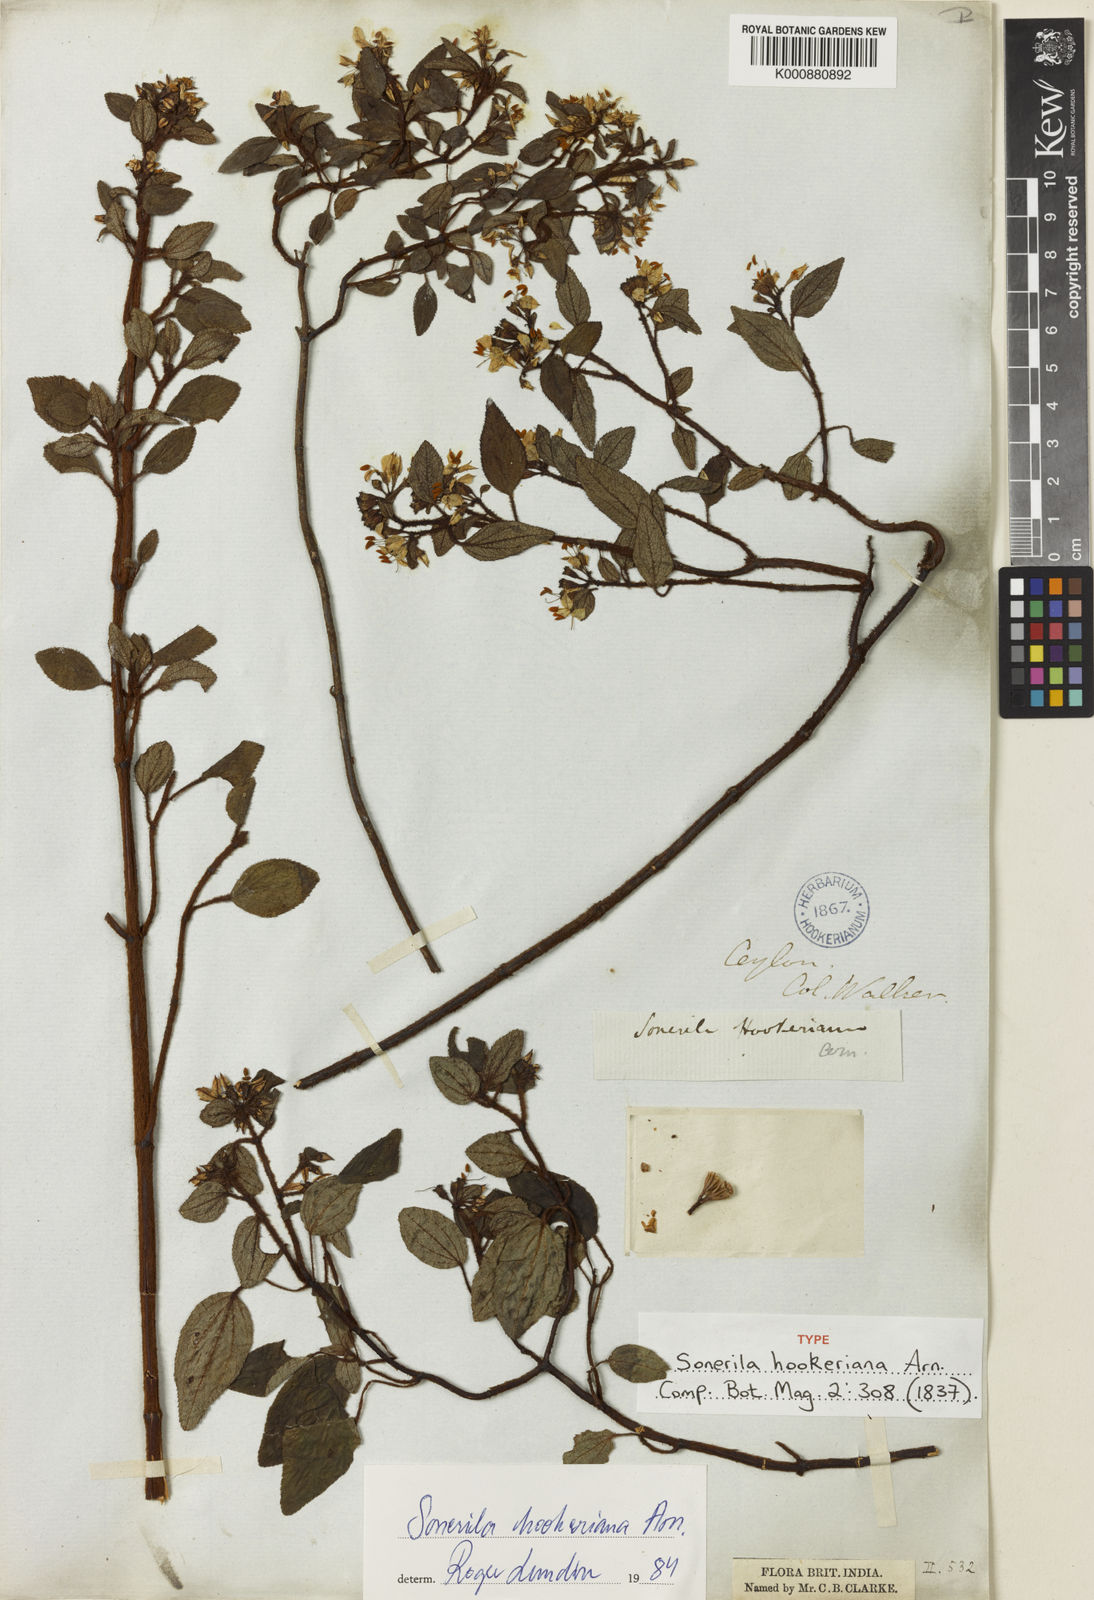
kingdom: Plantae
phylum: Tracheophyta
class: Magnoliopsida
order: Myrtales
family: Melastomataceae
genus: Sonerila
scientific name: Sonerila hookeriana
